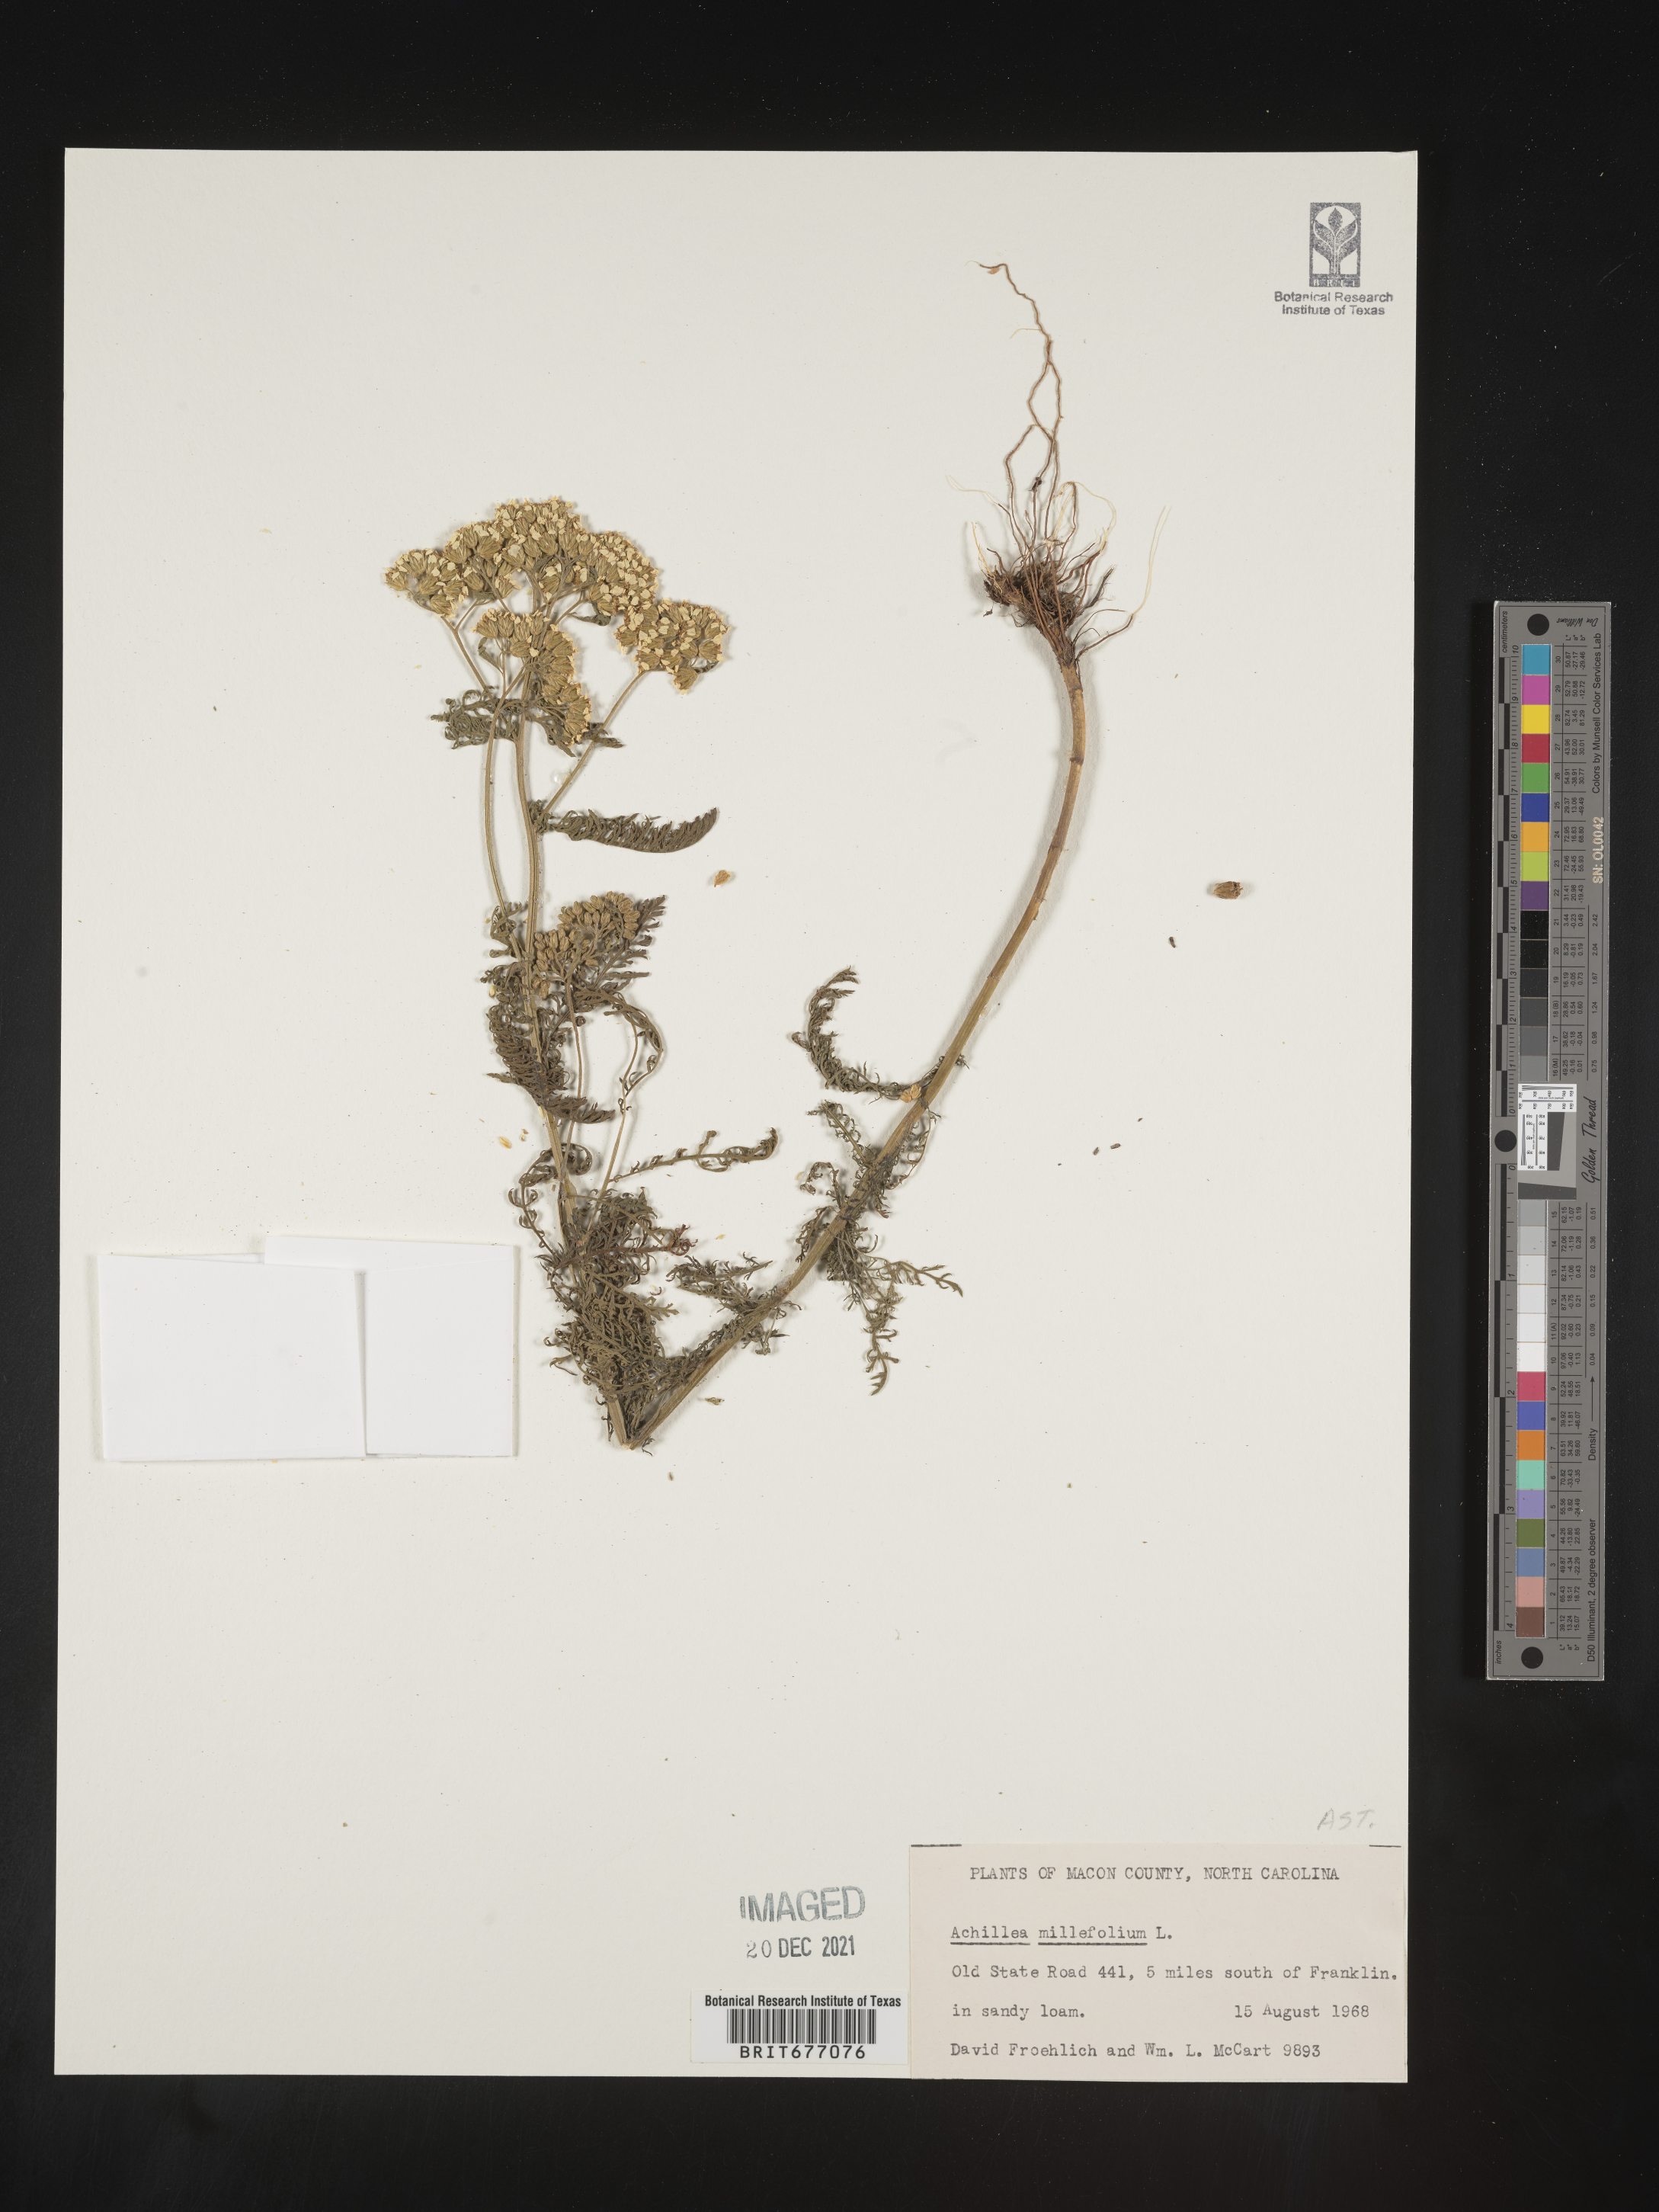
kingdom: Plantae
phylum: Tracheophyta
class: Magnoliopsida
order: Asterales
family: Asteraceae
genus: Achillea
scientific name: Achillea millefolium
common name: Yarrow
